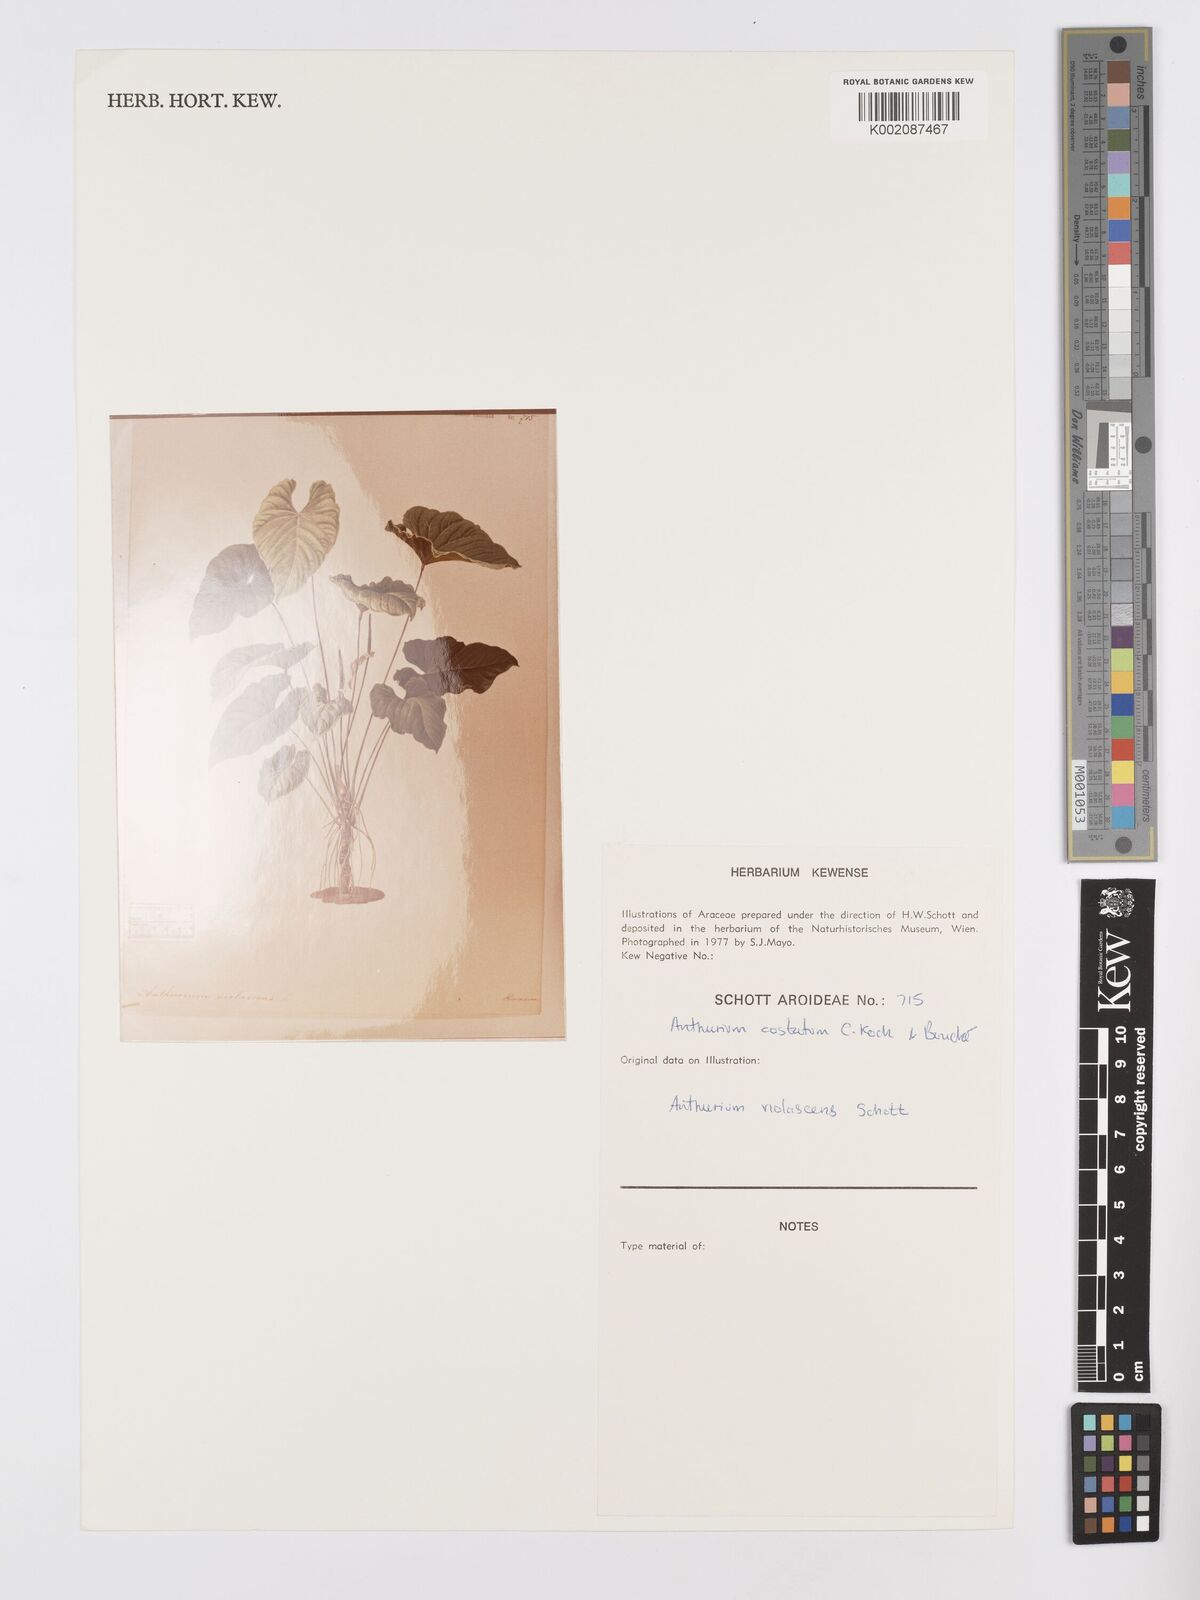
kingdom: Plantae
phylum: Tracheophyta
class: Liliopsida
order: Alismatales
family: Araceae
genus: Anthurium
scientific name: Anthurium macrophyllum
